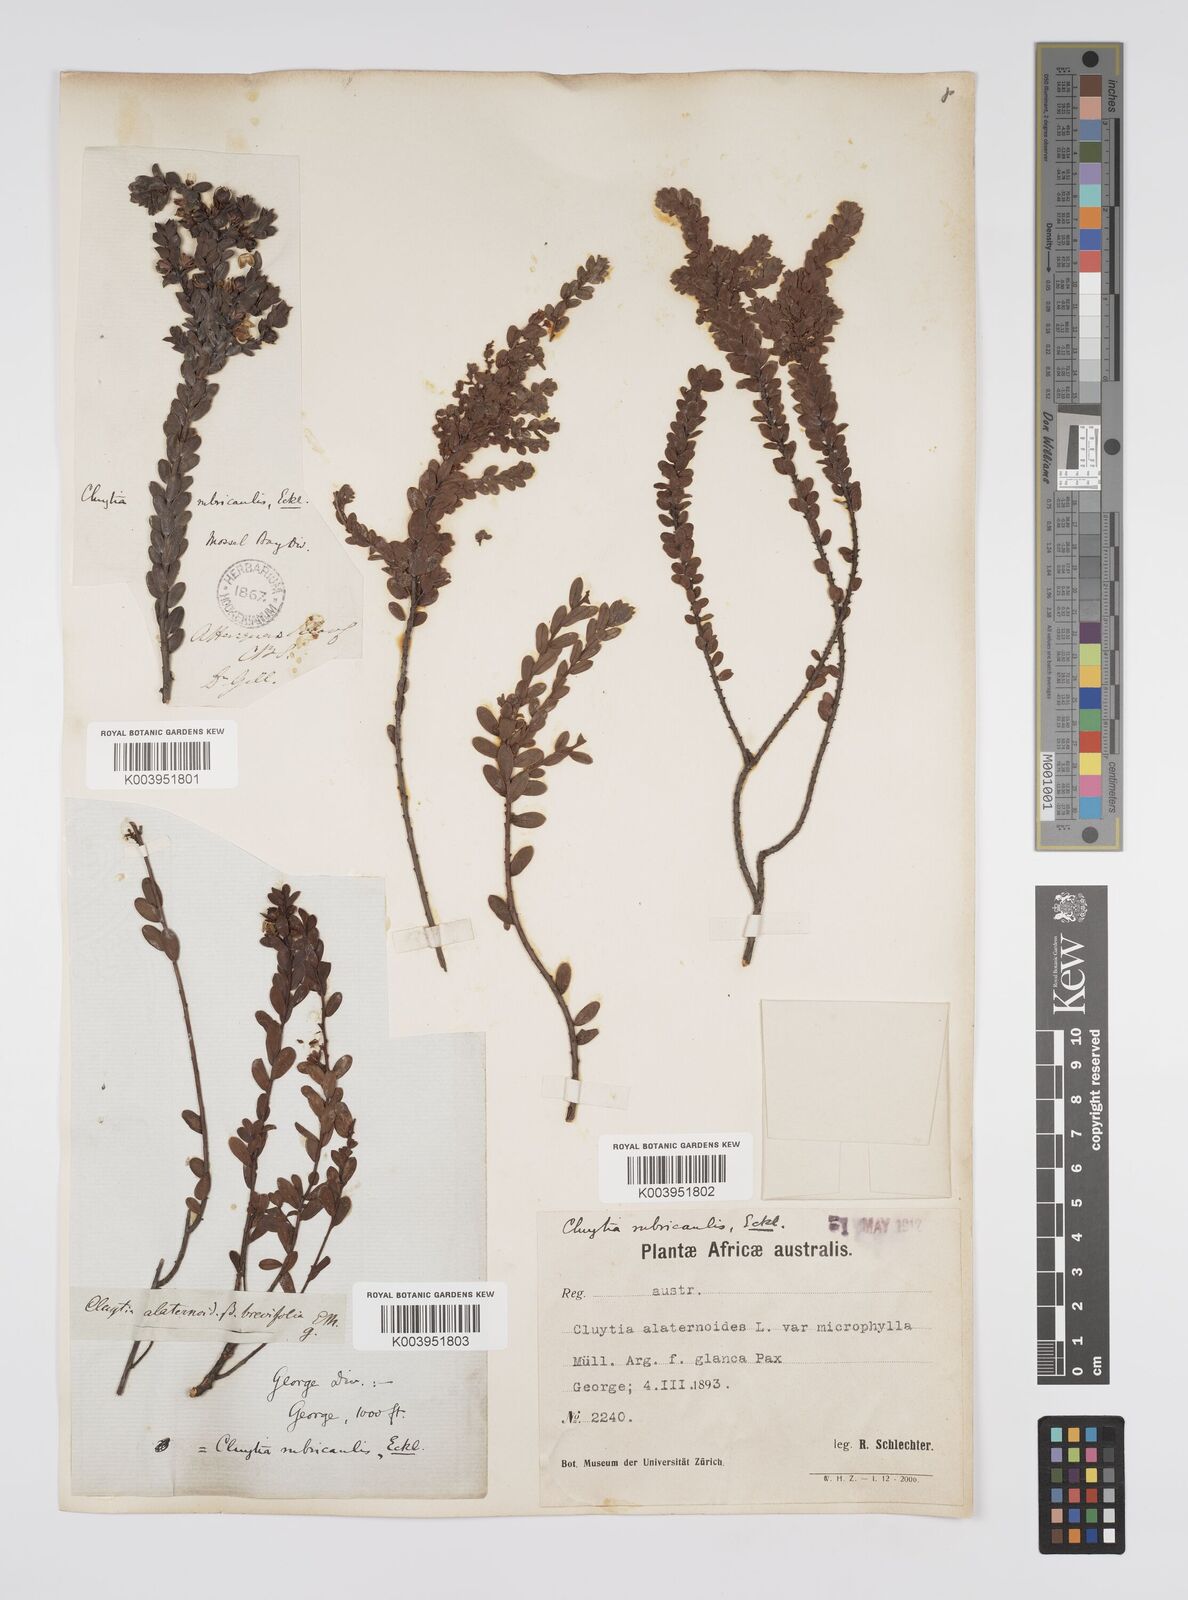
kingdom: Plantae
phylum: Tracheophyta
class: Magnoliopsida
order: Malpighiales
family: Peraceae
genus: Clutia
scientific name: Clutia rubricaulis
